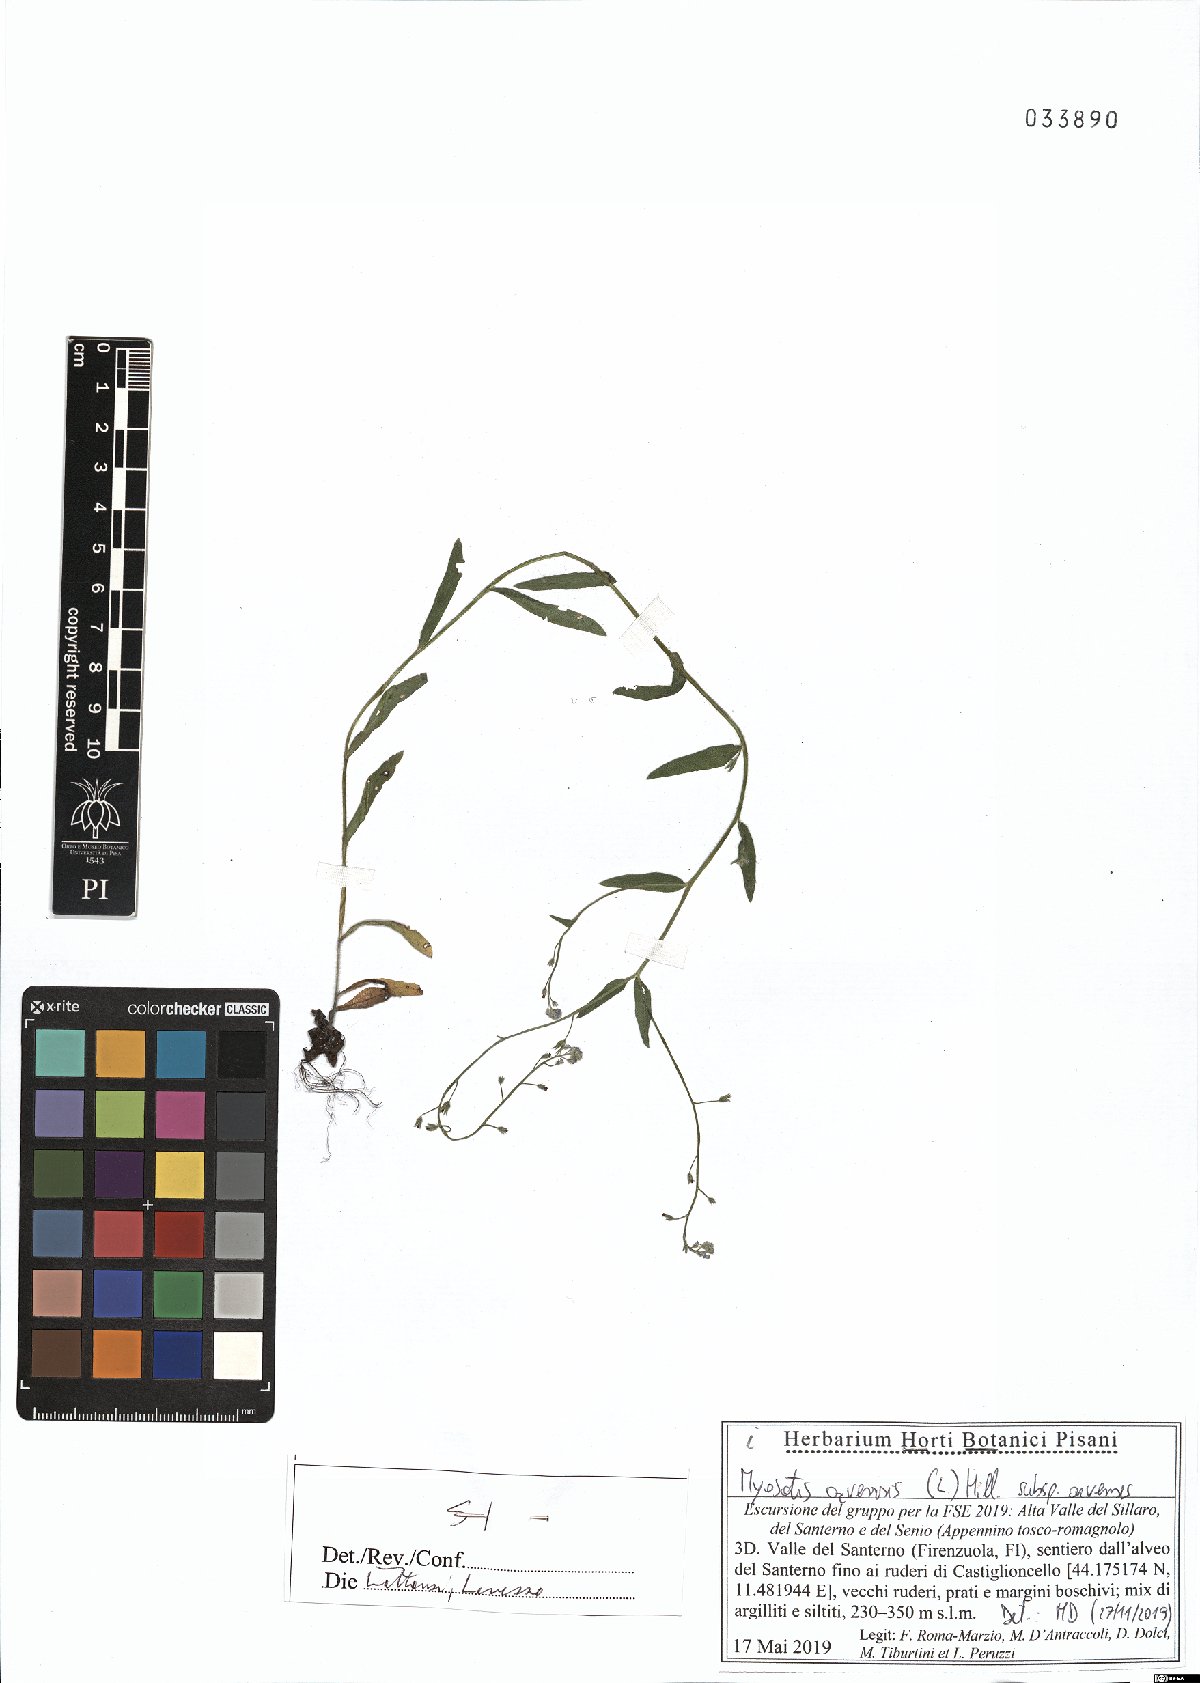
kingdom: Plantae
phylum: Tracheophyta
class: Magnoliopsida
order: Boraginales
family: Boraginaceae
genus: Myosotis
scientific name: Myosotis arvensis
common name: Field forget-me-not
